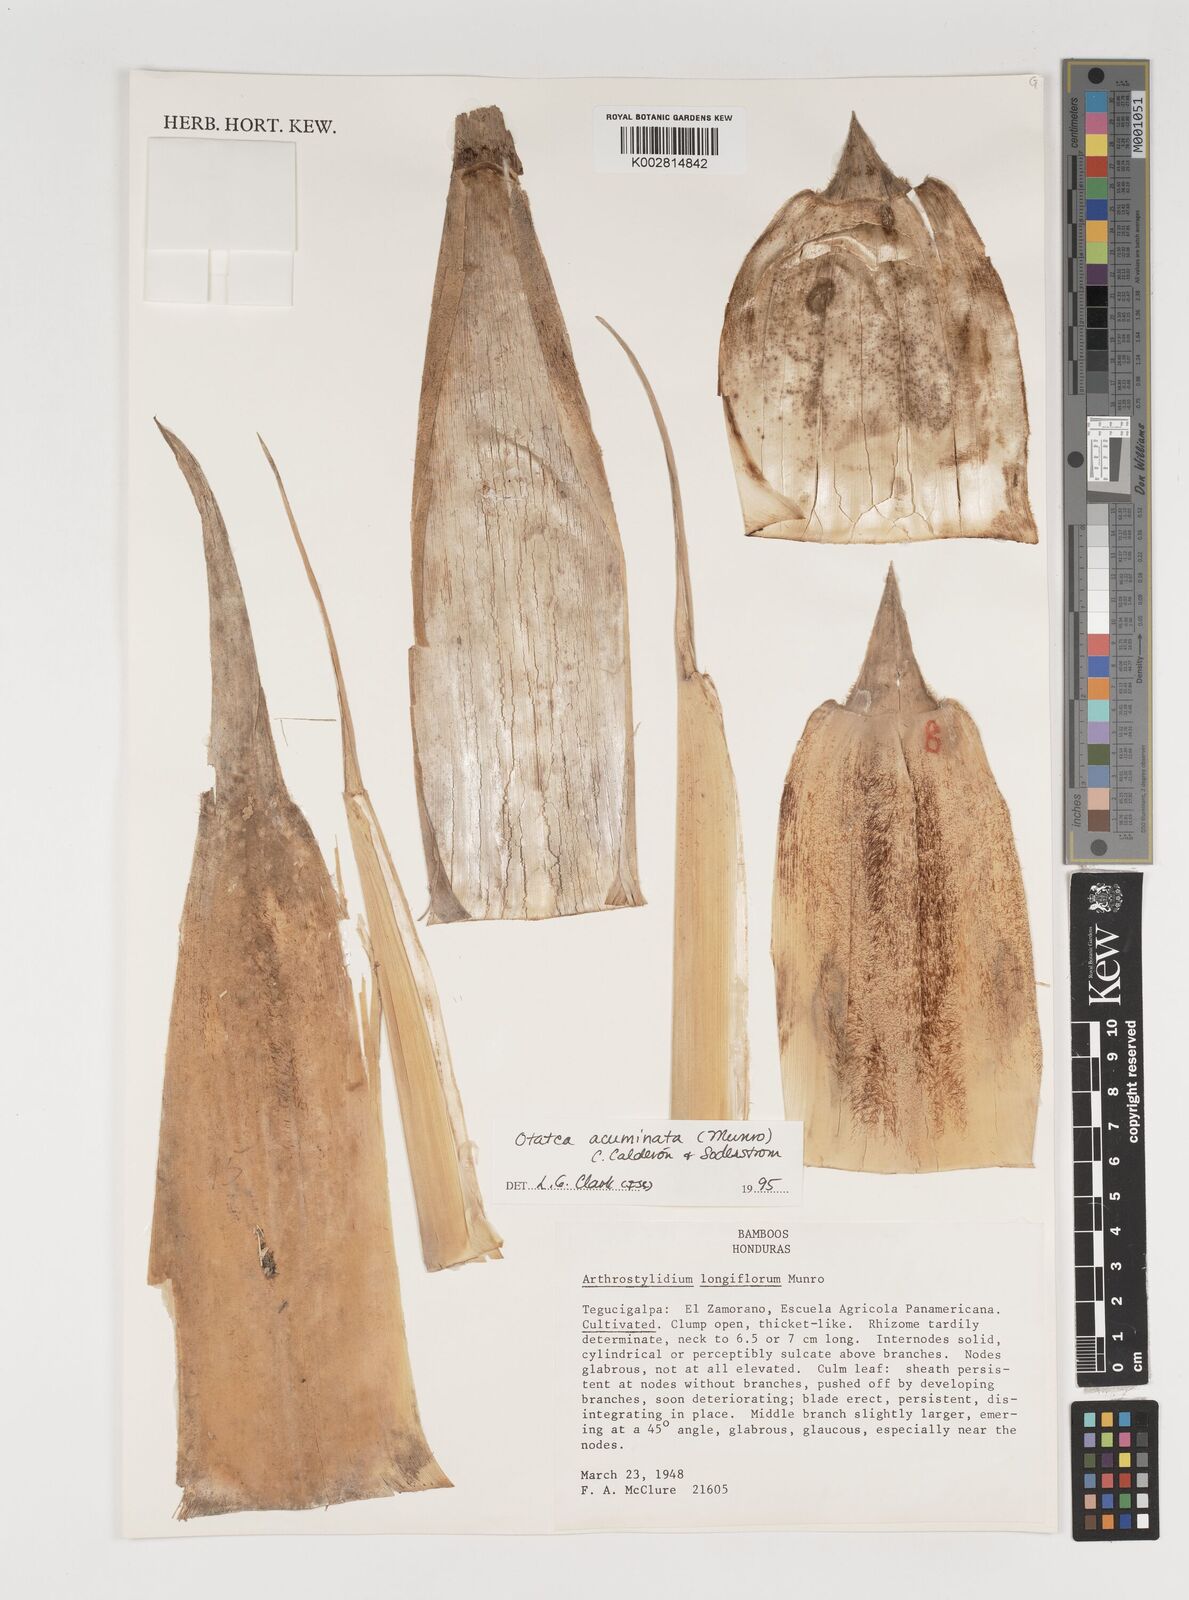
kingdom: Plantae
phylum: Tracheophyta
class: Liliopsida
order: Poales
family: Poaceae
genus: Olmeca
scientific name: Olmeca
